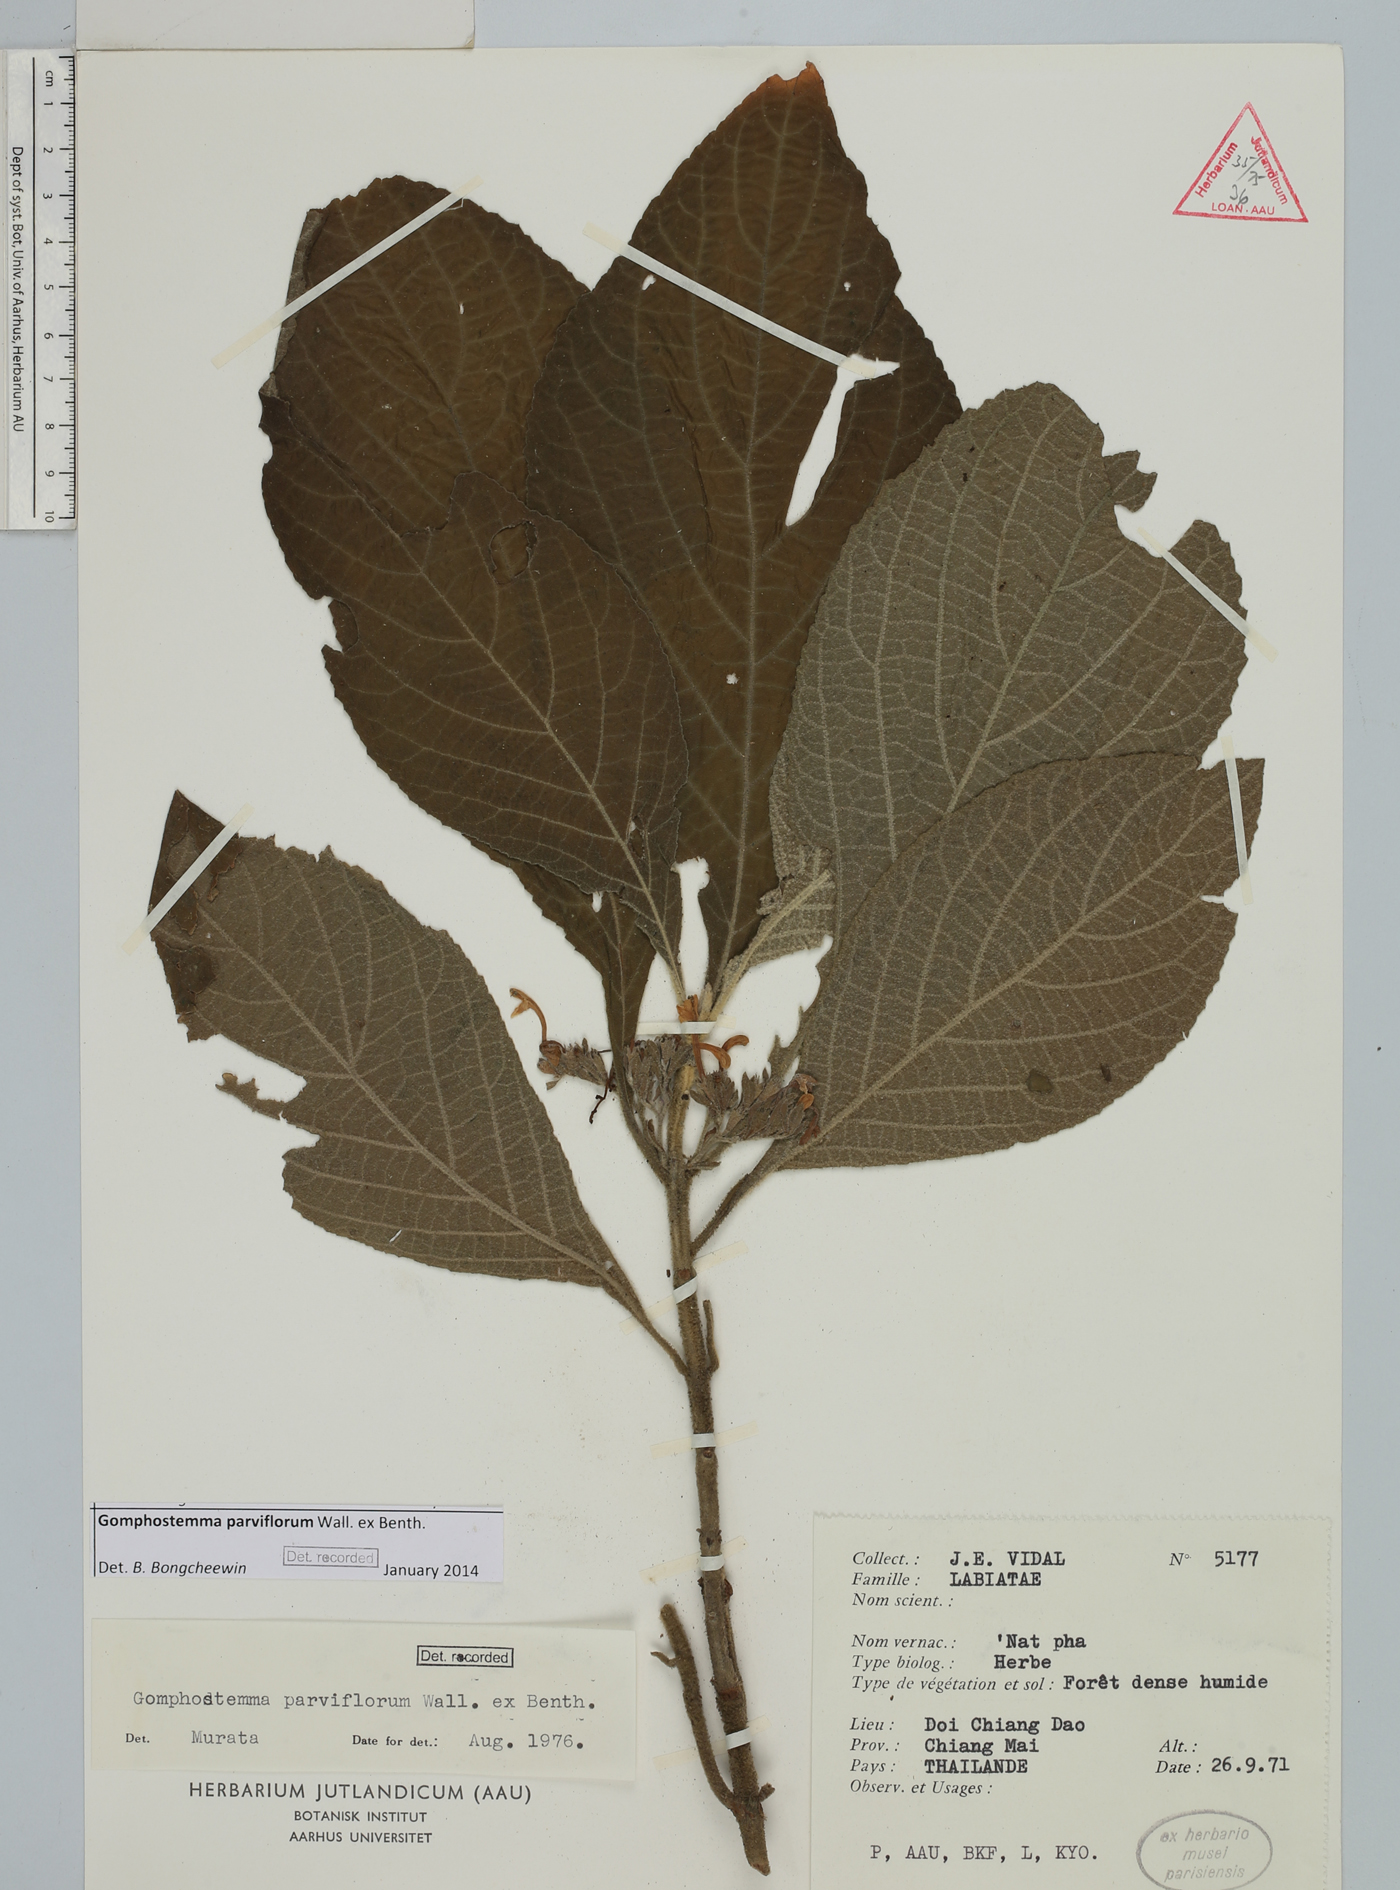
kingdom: Plantae
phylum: Tracheophyta
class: Magnoliopsida
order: Lamiales
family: Lamiaceae
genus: Gomphostemma
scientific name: Gomphostemma parviflorum
